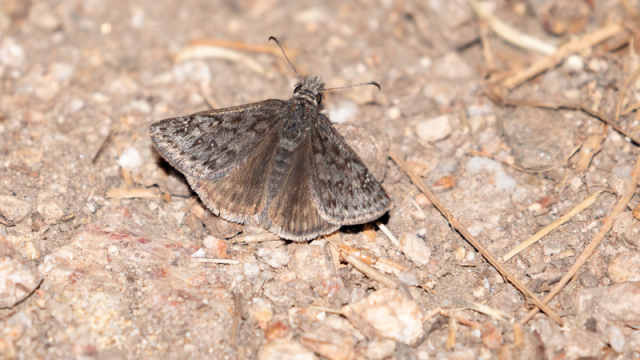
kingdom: Animalia
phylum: Arthropoda
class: Insecta
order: Lepidoptera
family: Hesperiidae
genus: Erynnis
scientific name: Erynnis telemachus
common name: Rocky Mountain Duskywing
